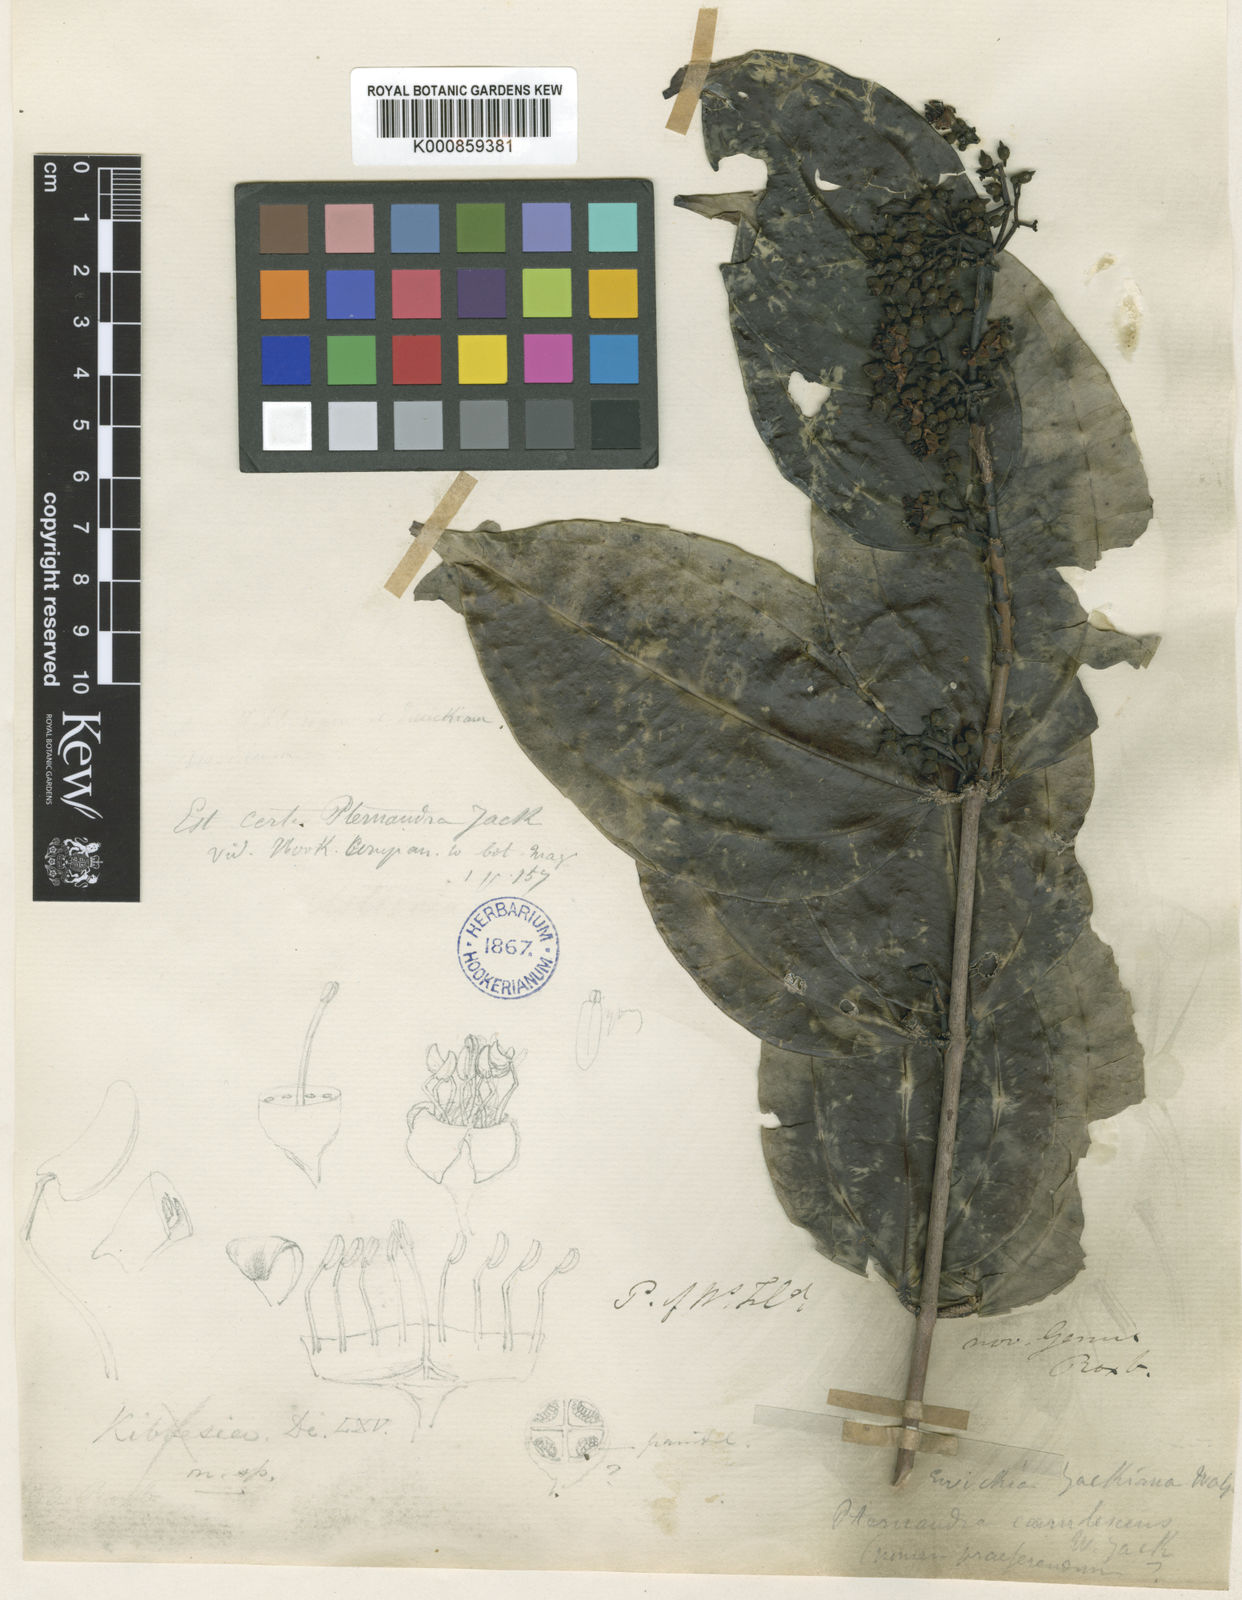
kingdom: Plantae
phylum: Tracheophyta
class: Magnoliopsida
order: Myrtales
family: Melastomataceae
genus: Pternandra
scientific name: Pternandra coerulescens
